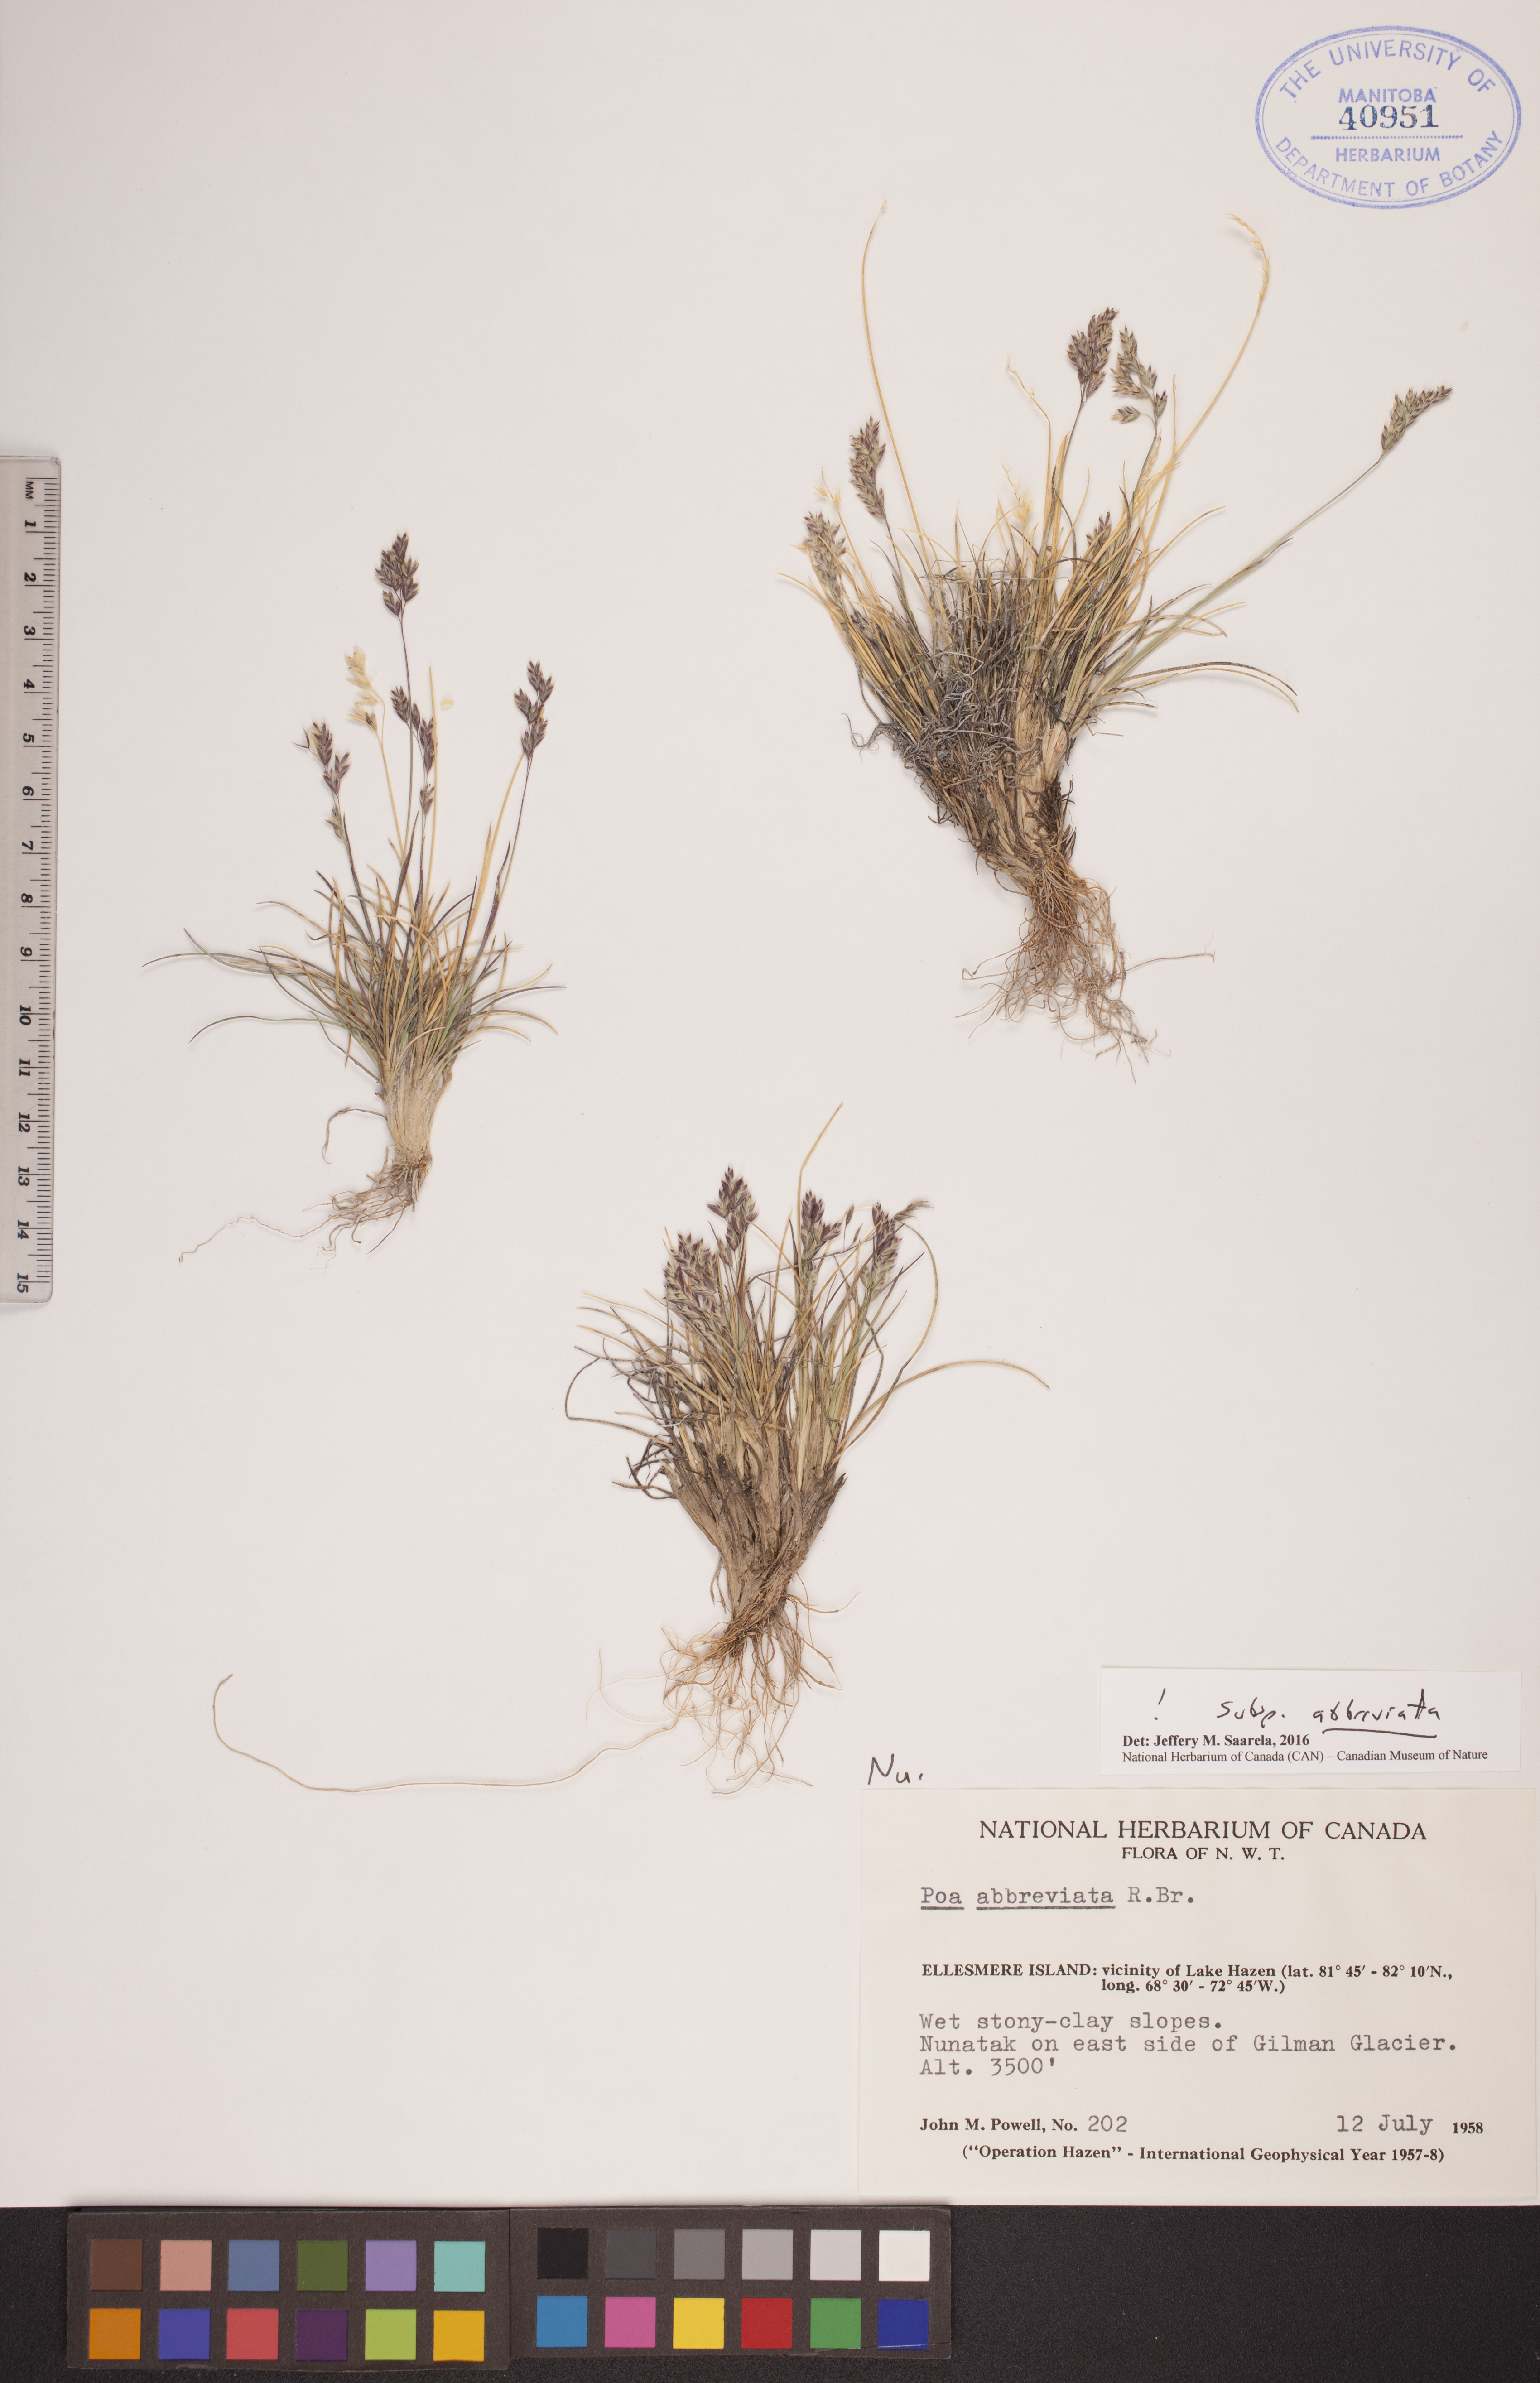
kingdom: Plantae
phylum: Tracheophyta
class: Liliopsida
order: Poales
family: Poaceae
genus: Poa
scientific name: Poa abbreviata
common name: Abbreviated bluegrass
